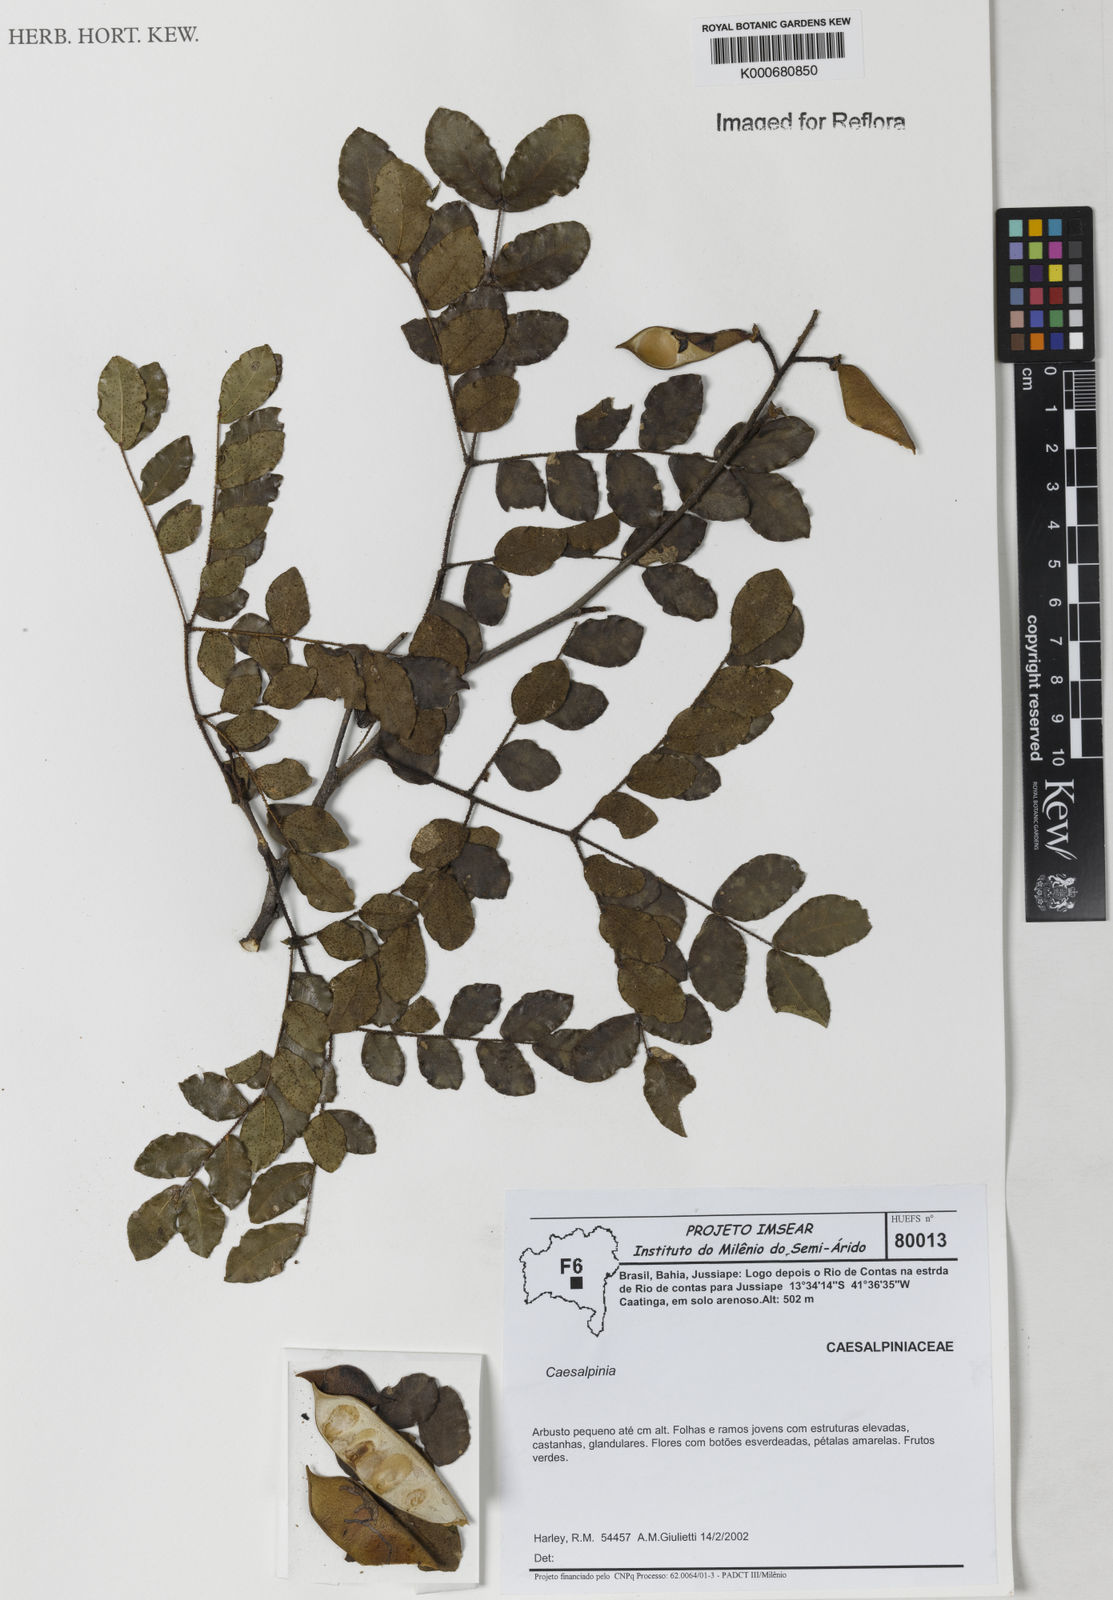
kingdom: Plantae
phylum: Tracheophyta
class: Magnoliopsida
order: Fabales
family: Fabaceae
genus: Caesalpinia
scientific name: Caesalpinia
